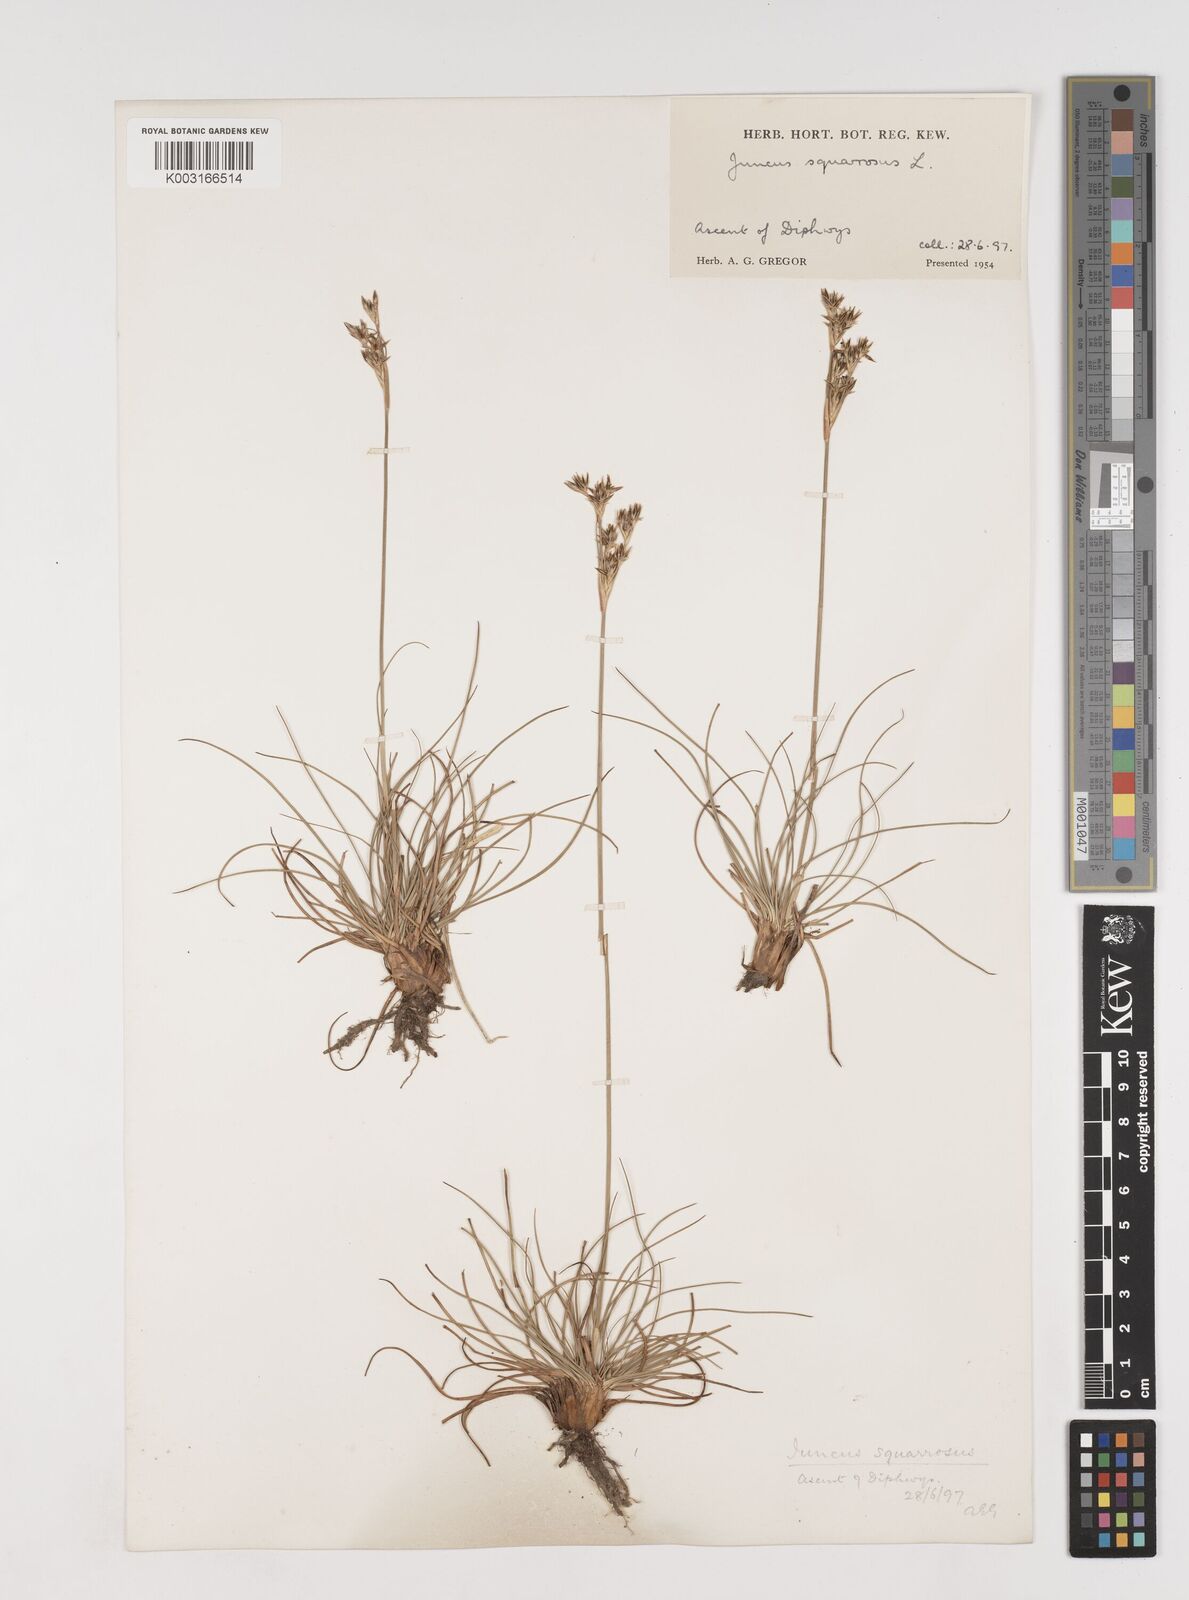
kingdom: Plantae
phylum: Tracheophyta
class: Liliopsida
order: Poales
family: Juncaceae
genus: Juncus
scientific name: Juncus squarrosus
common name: Heath rush
